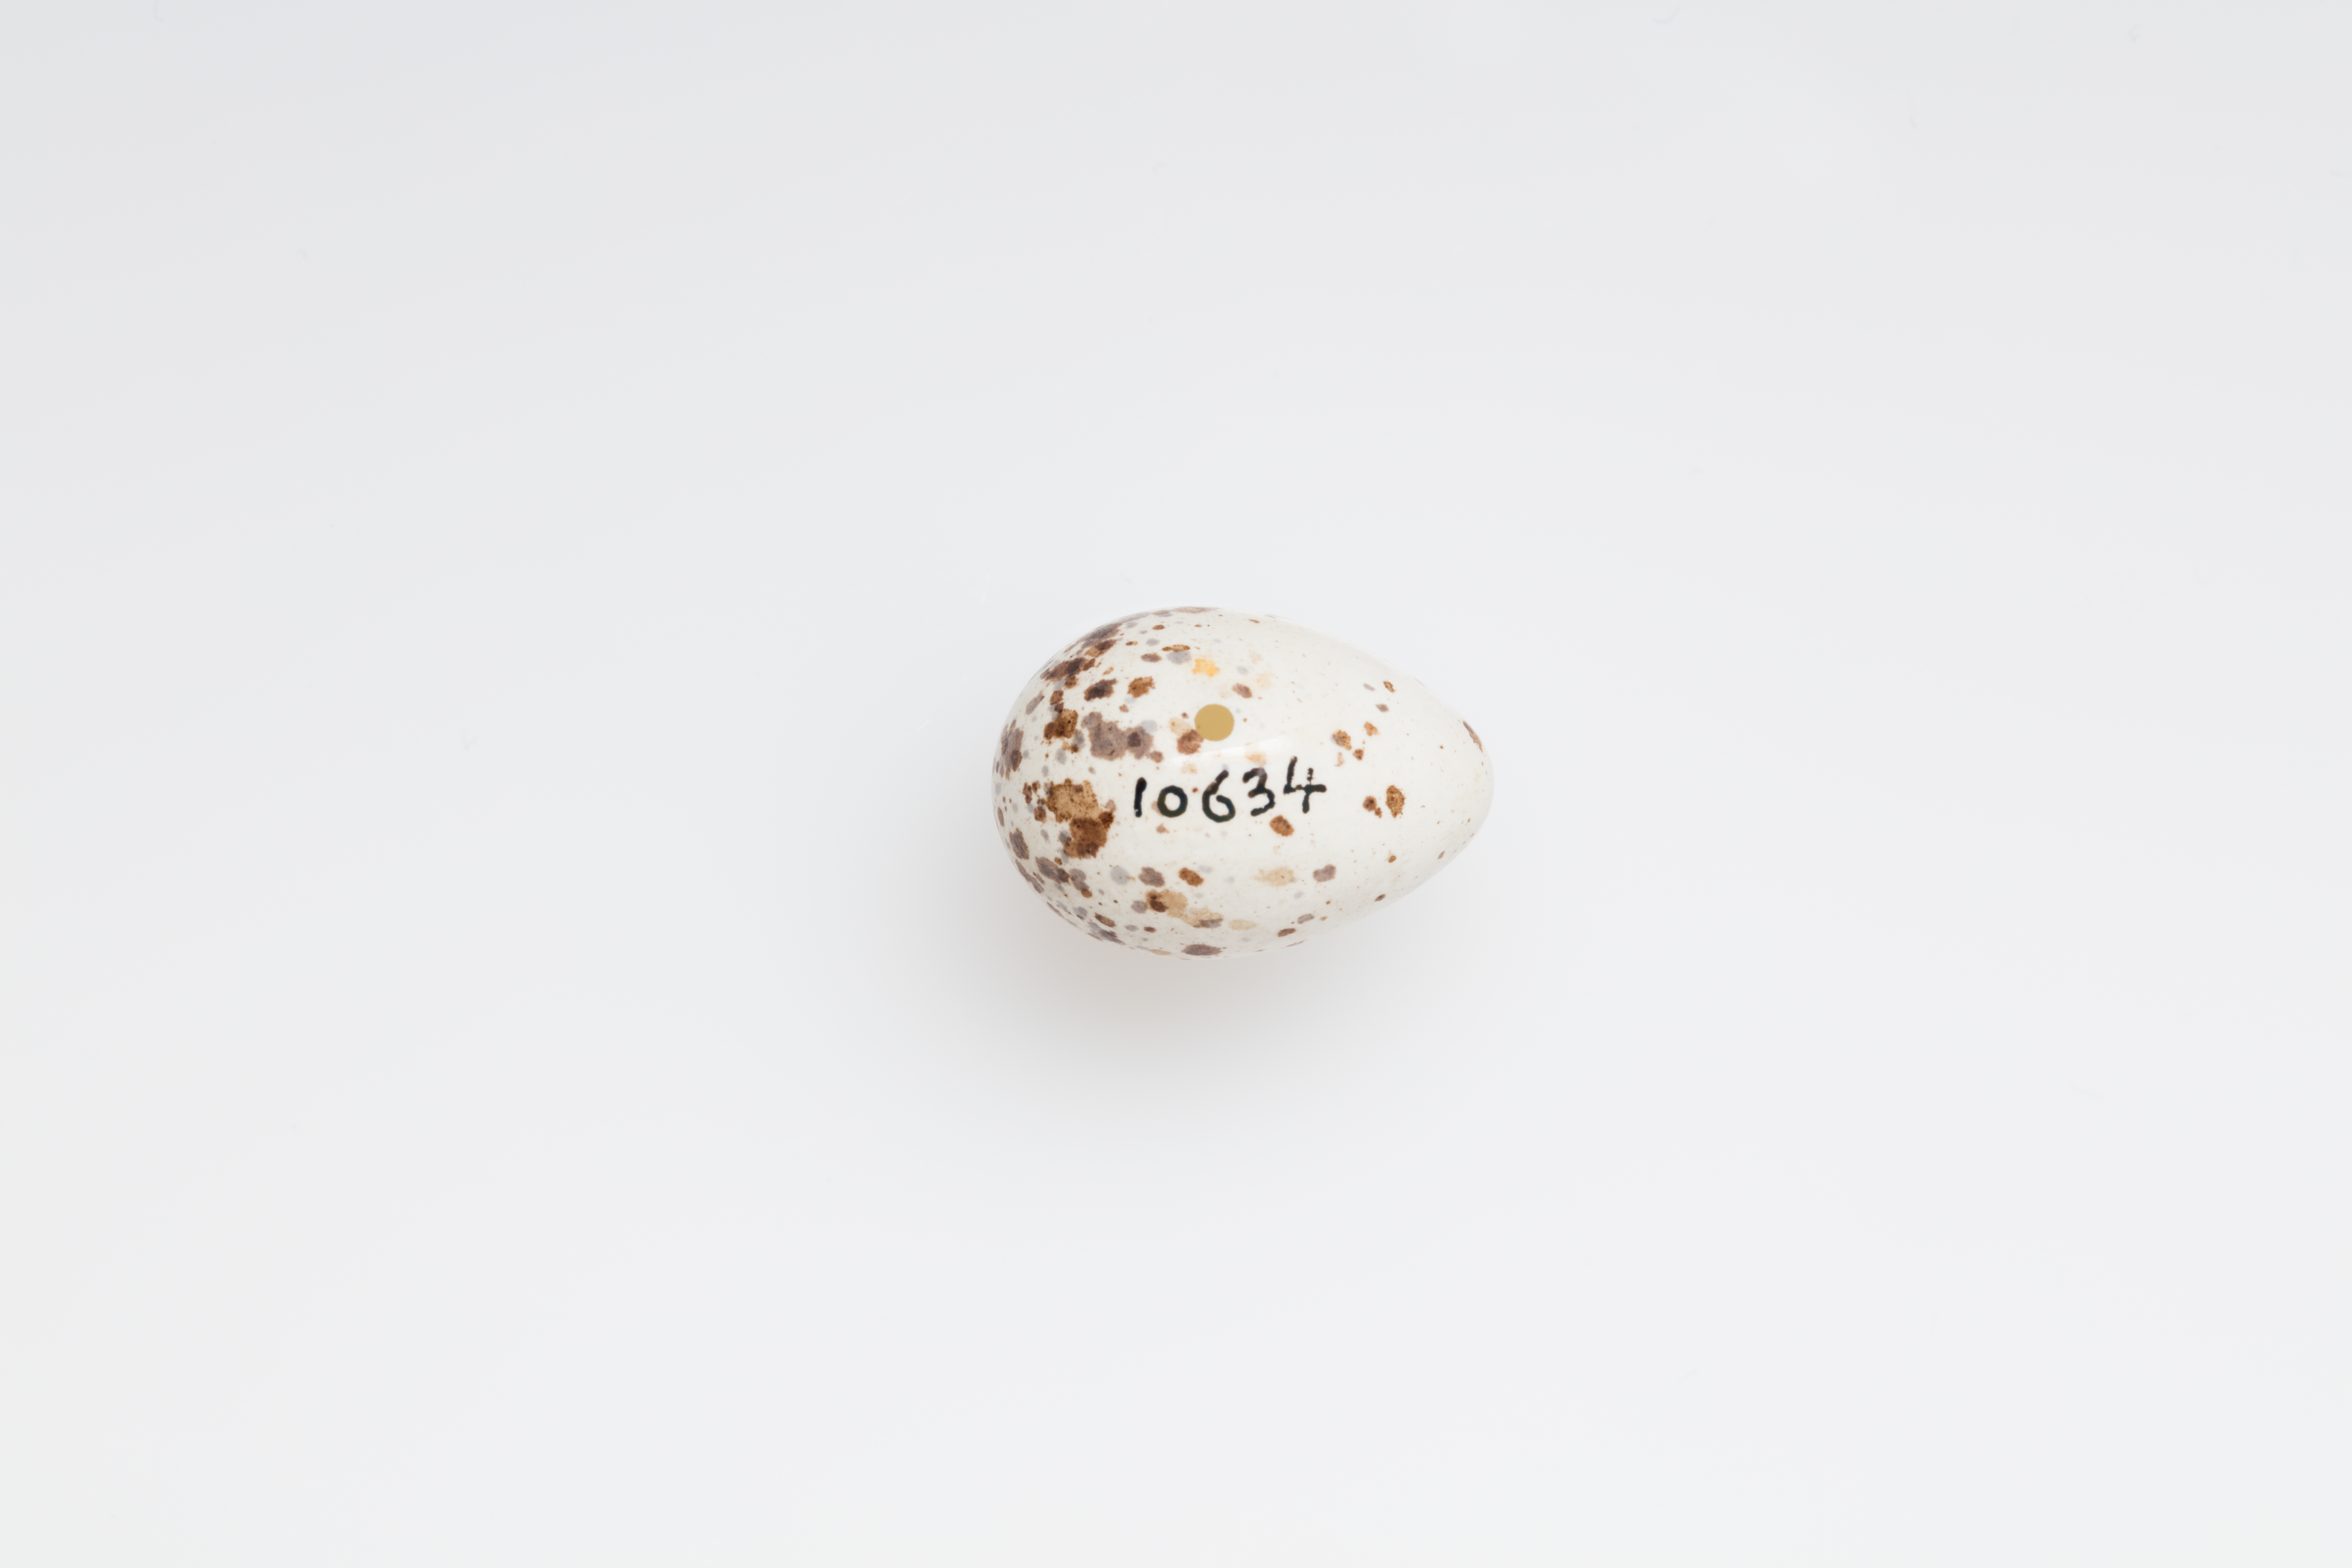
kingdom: Animalia
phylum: Chordata
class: Aves
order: Passeriformes
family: Hirundinidae
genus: Hirundo
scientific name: Hirundo rustica
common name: Barn swallow
